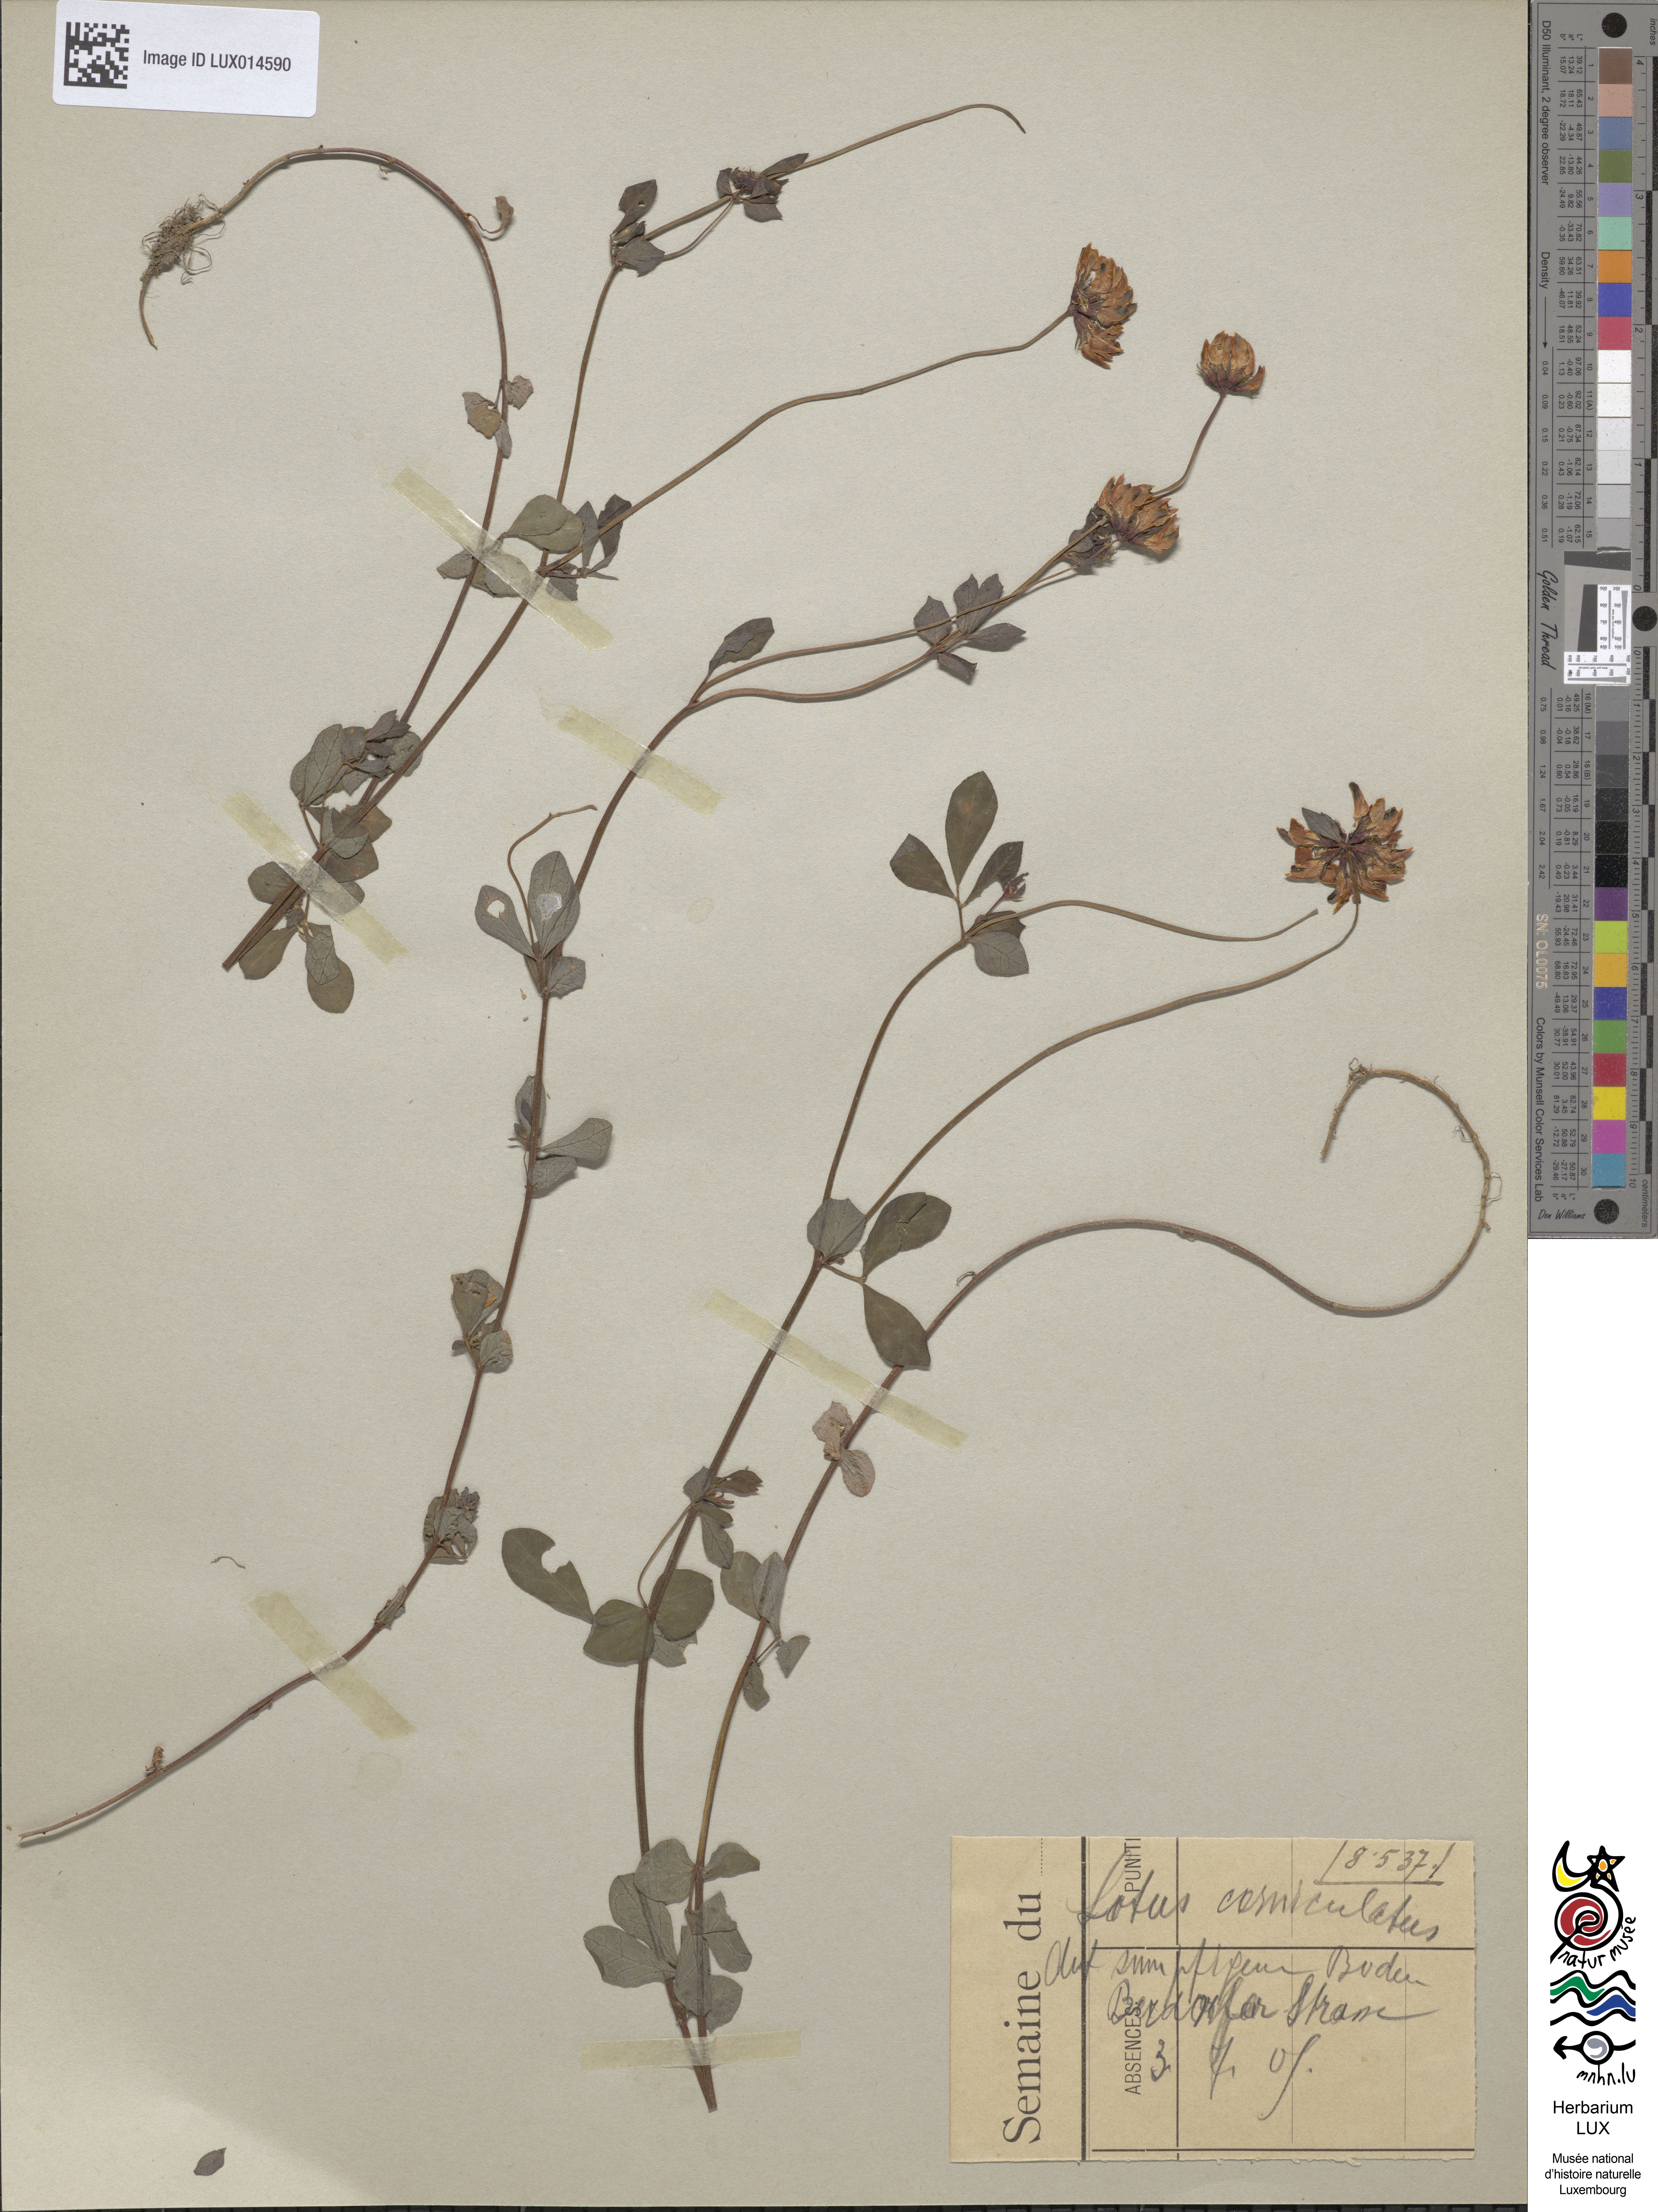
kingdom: Plantae
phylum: Tracheophyta
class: Magnoliopsida
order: Fabales
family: Fabaceae
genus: Lotus
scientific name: Lotus corniculatus
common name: Common bird's-foot-trefoil
